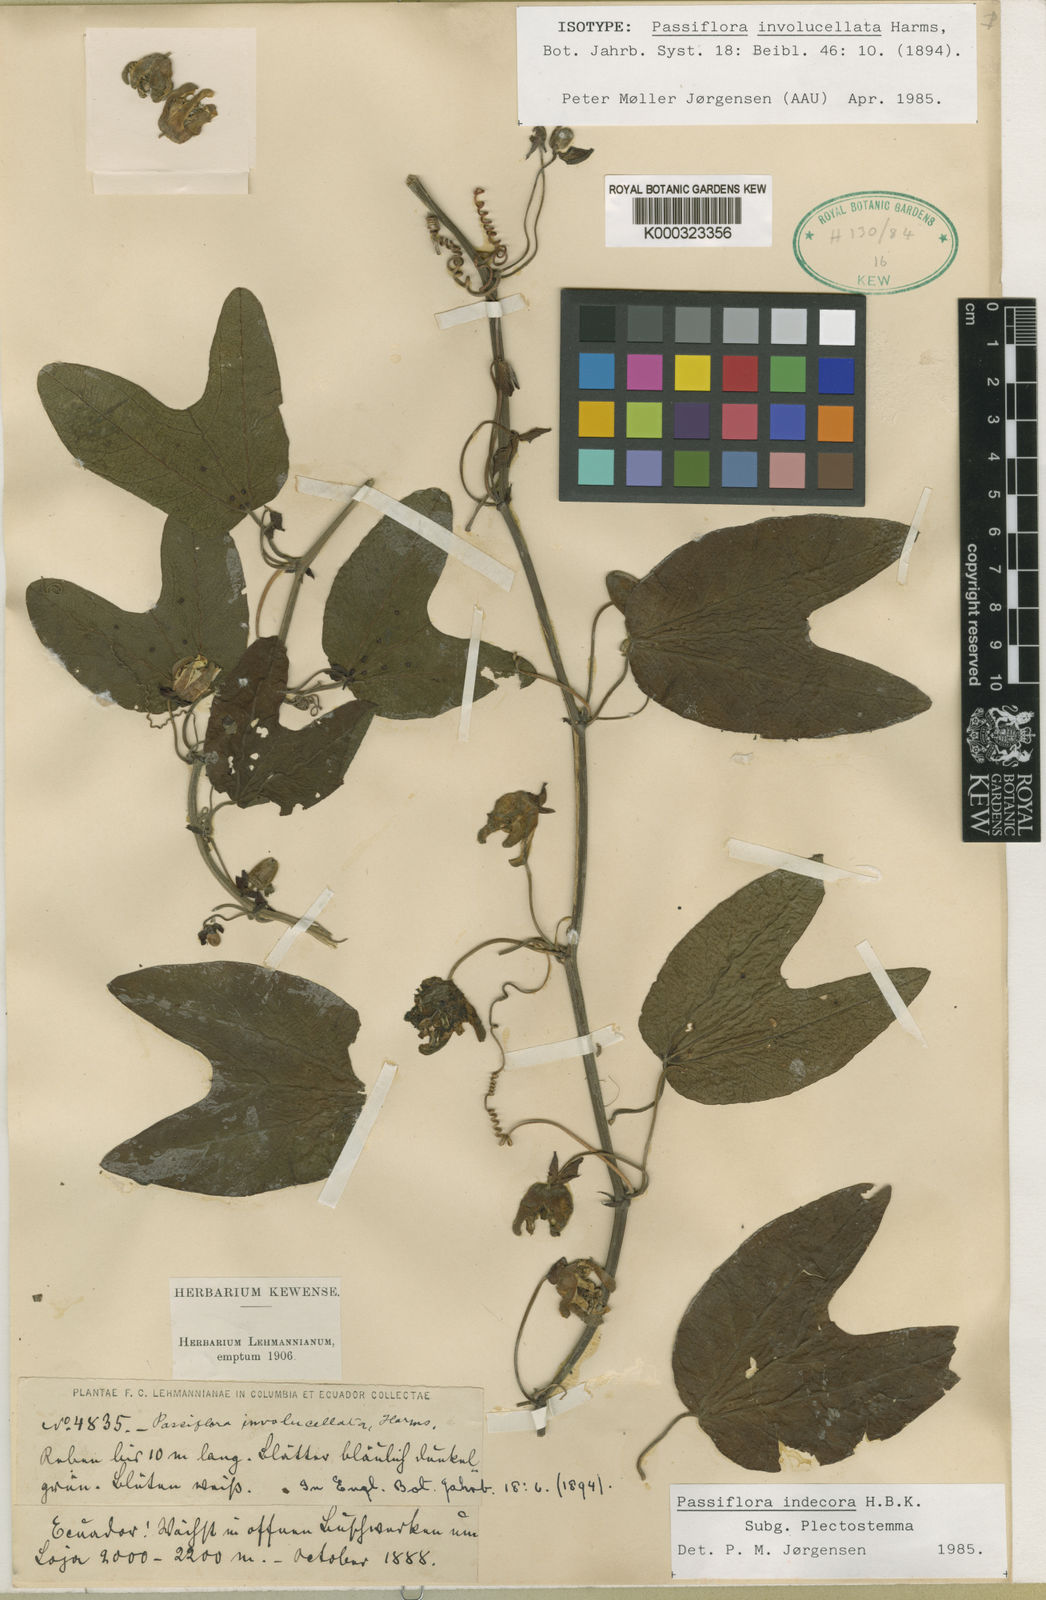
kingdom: Plantae
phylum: Tracheophyta
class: Magnoliopsida
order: Malpighiales
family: Passifloraceae
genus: Passiflora
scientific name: Passiflora kalbreyeri
